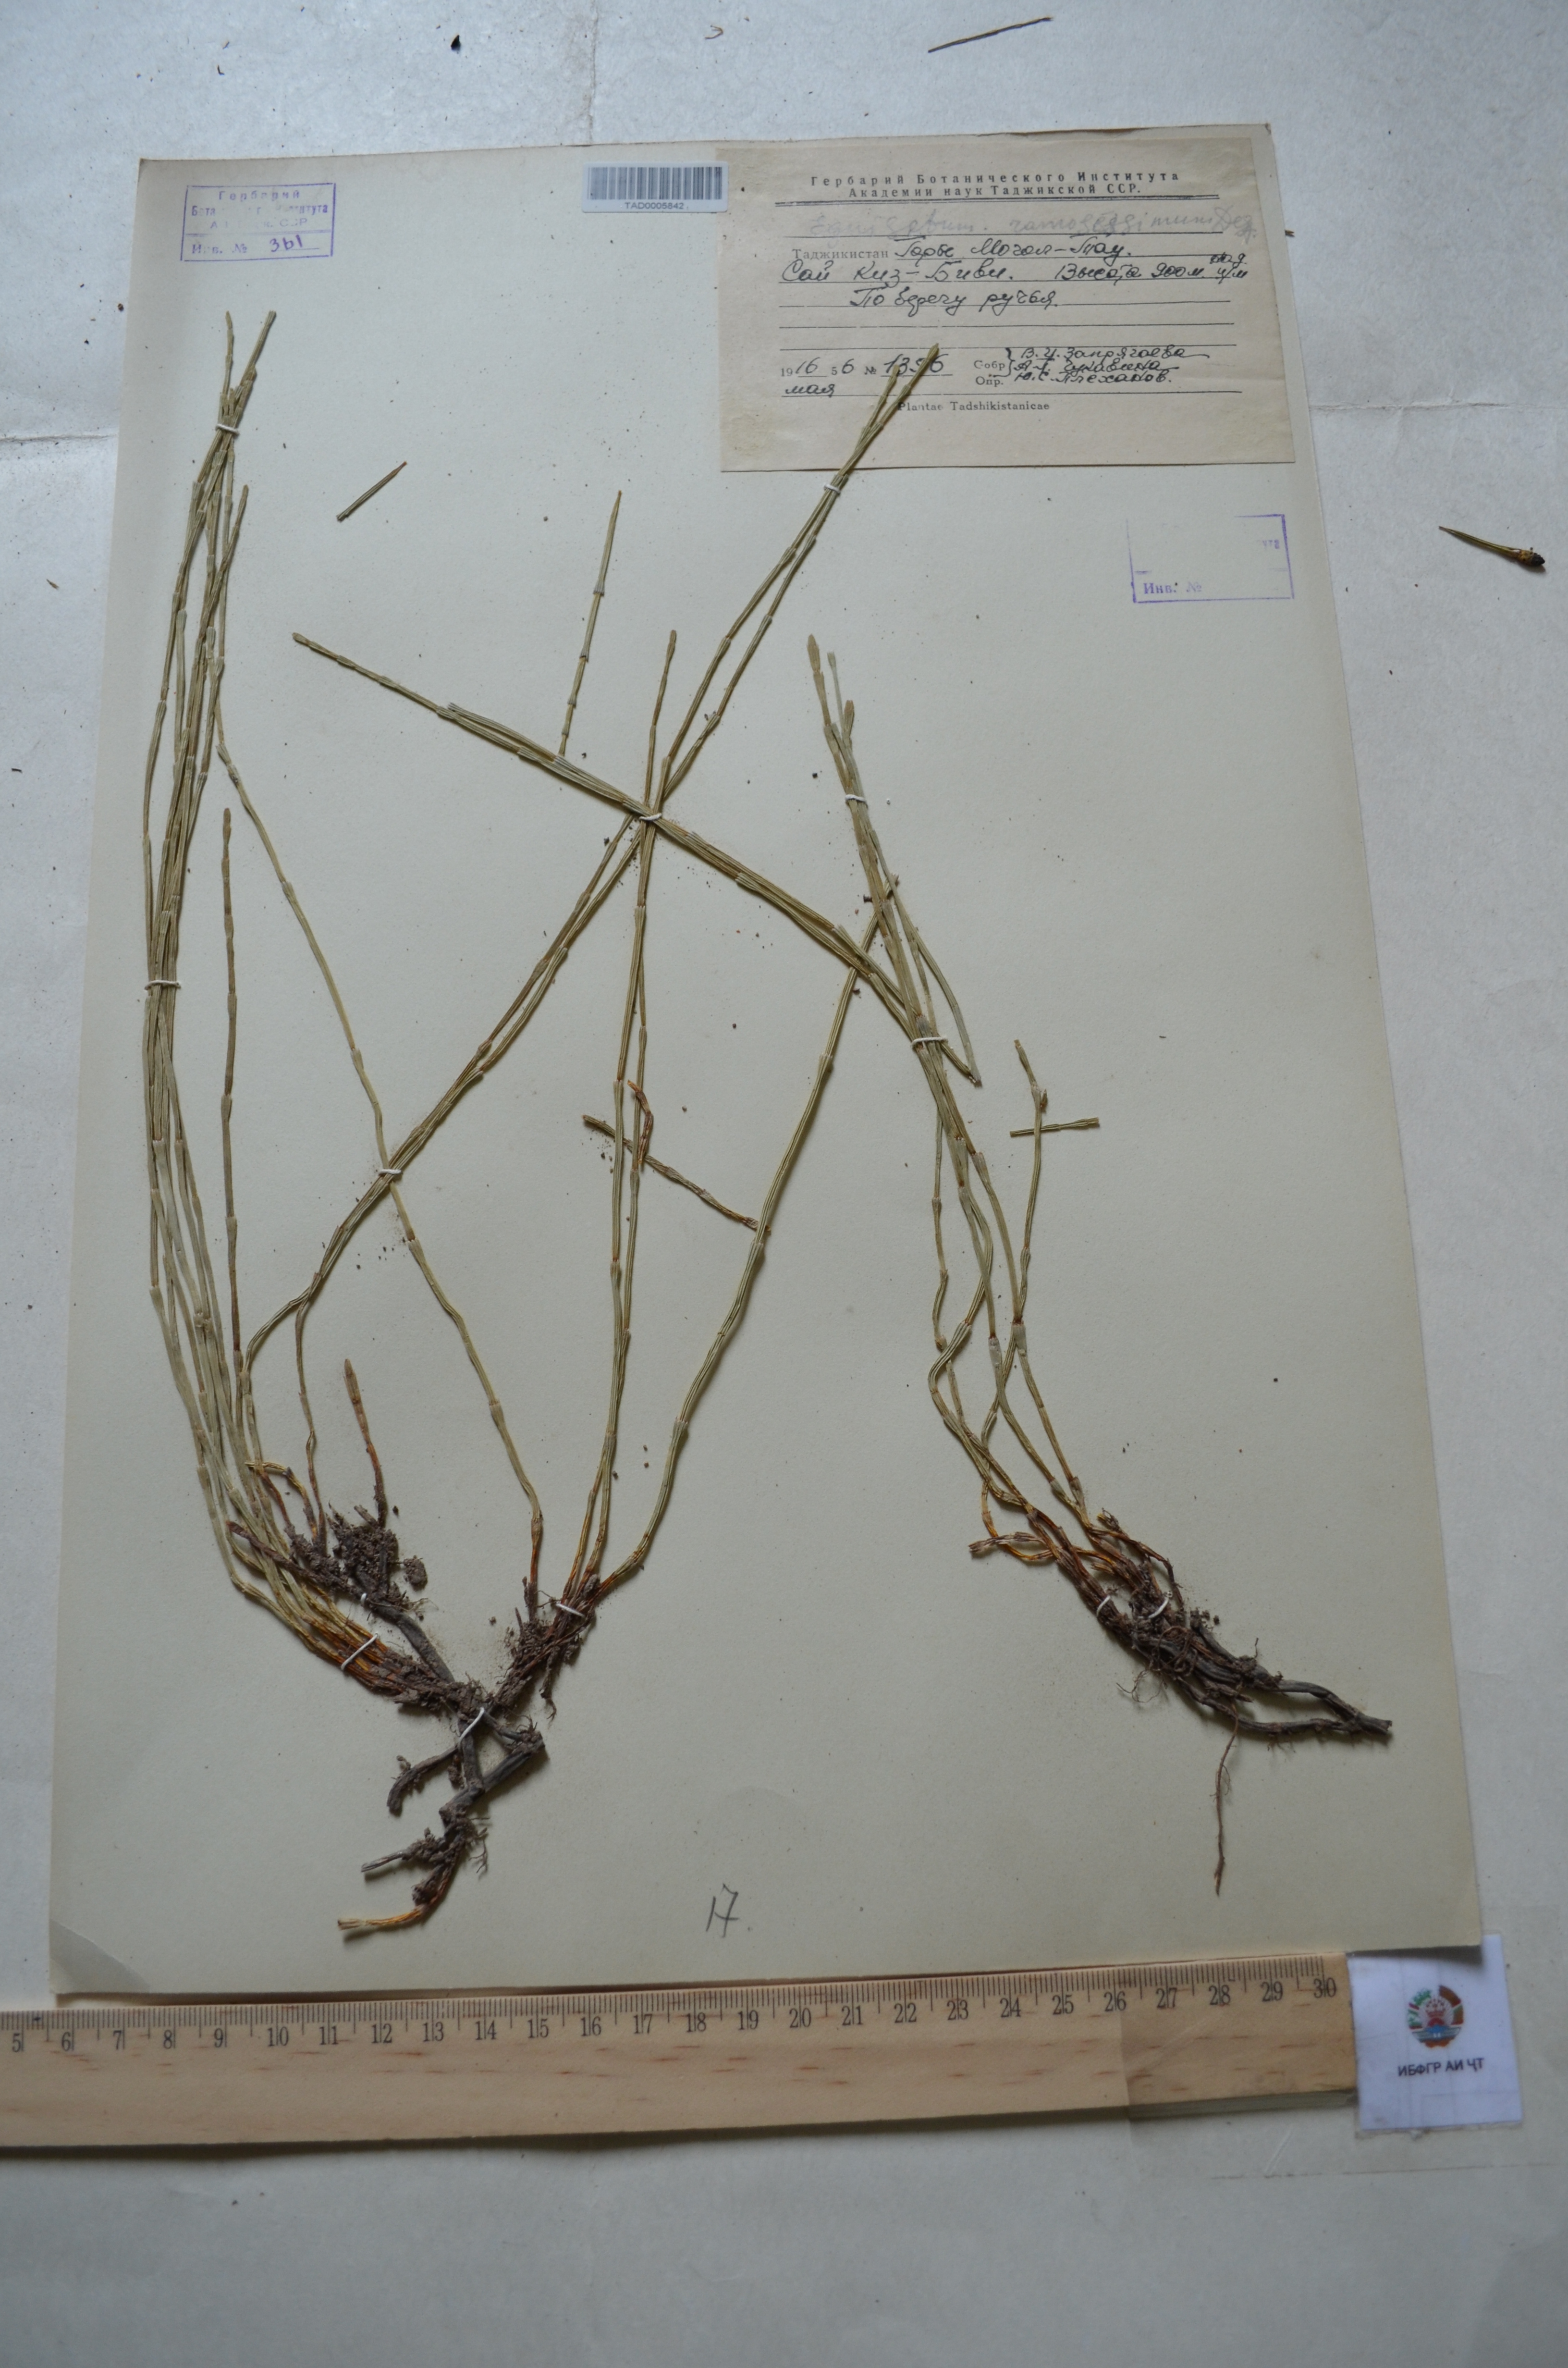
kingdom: Plantae
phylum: Tracheophyta
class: Polypodiopsida
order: Equisetales
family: Equisetaceae
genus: Equisetum
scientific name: Equisetum ramosissimum
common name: Branched horsetail
